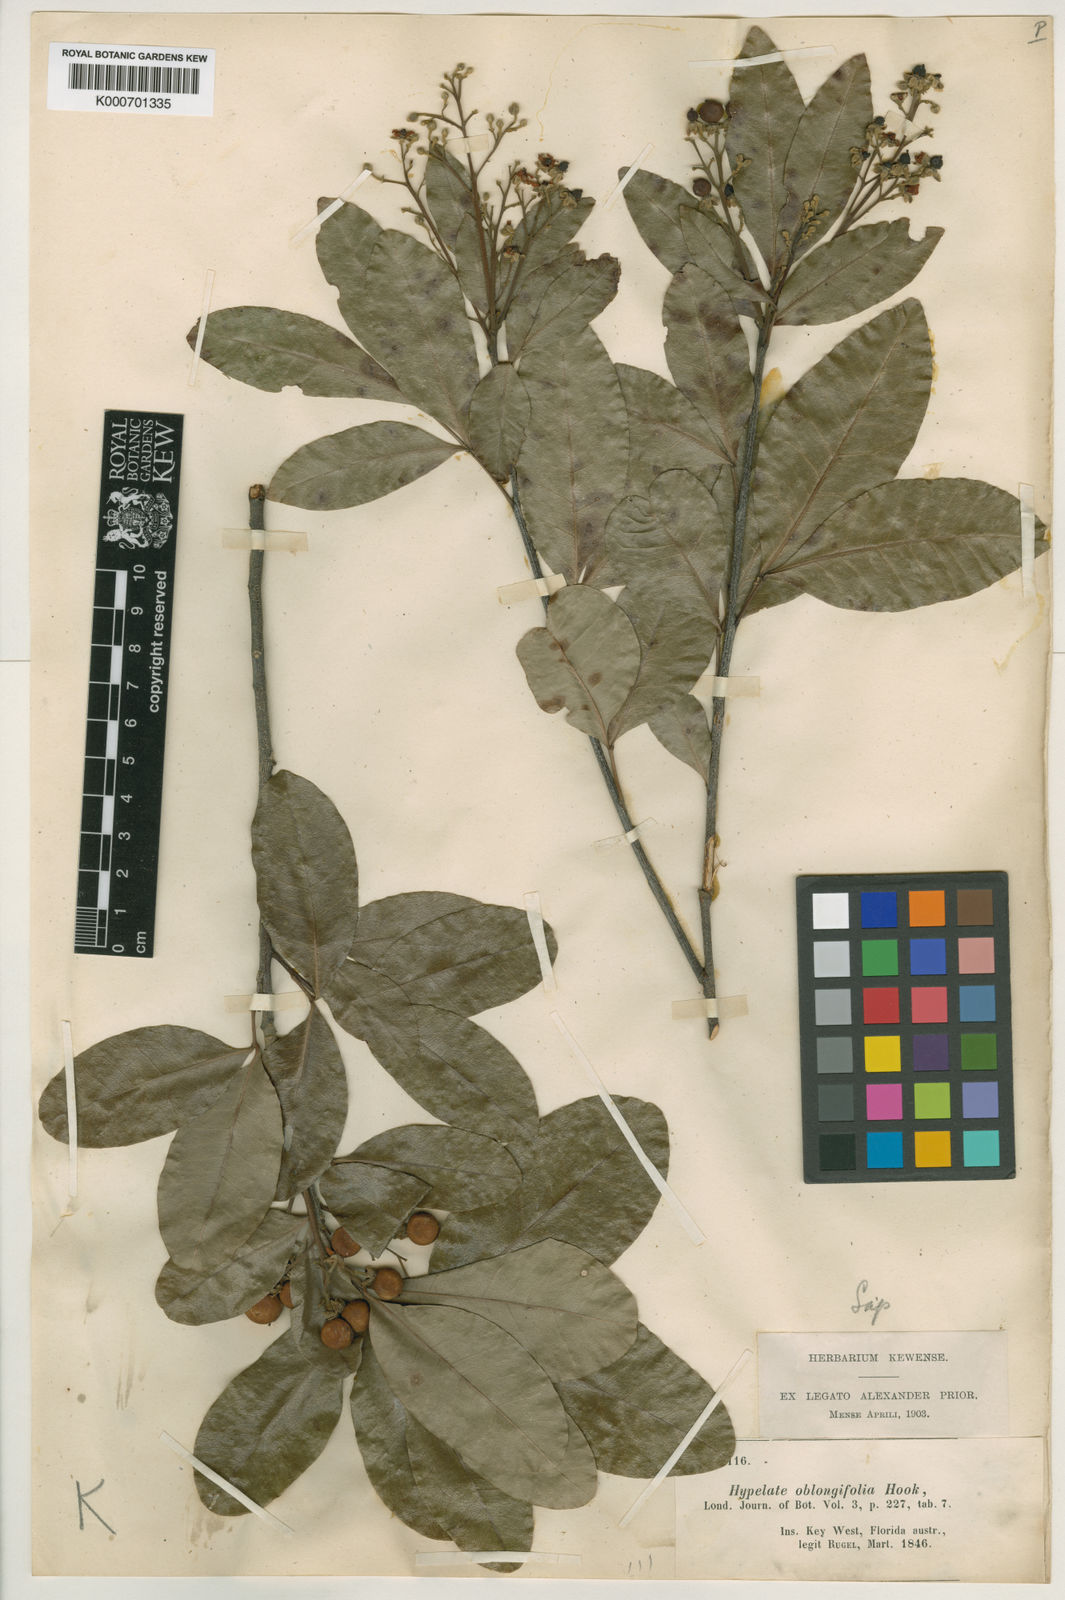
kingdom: Plantae
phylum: Tracheophyta
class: Magnoliopsida
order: Sapindales
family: Sapindaceae
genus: Exothea
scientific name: Exothea paniculata
